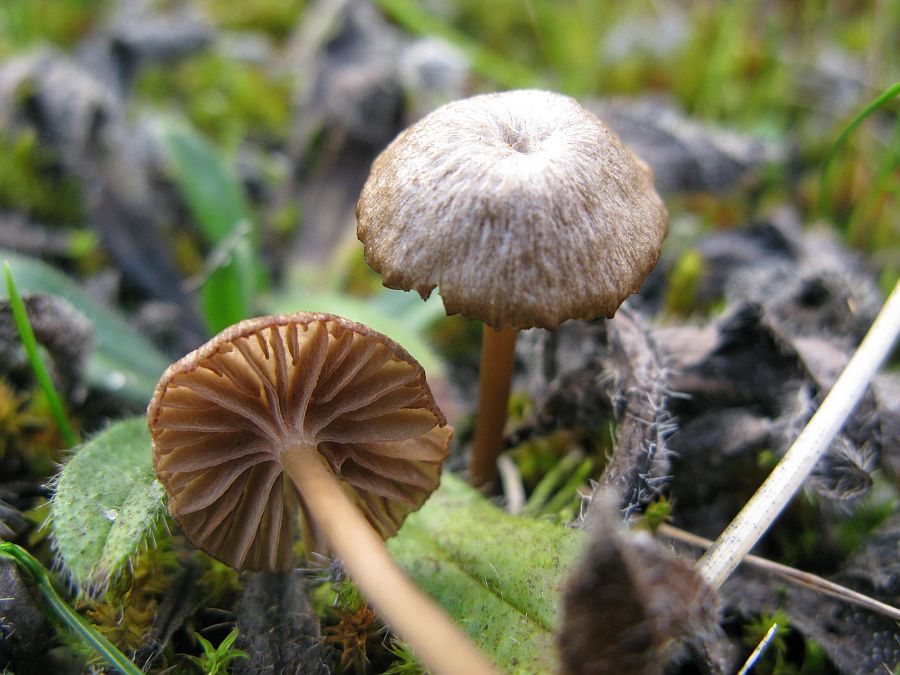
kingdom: Fungi
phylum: Basidiomycota
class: Agaricomycetes
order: Agaricales
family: Entolomataceae
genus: Entoloma
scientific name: Entoloma rusticoides
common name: sand-rødblad
